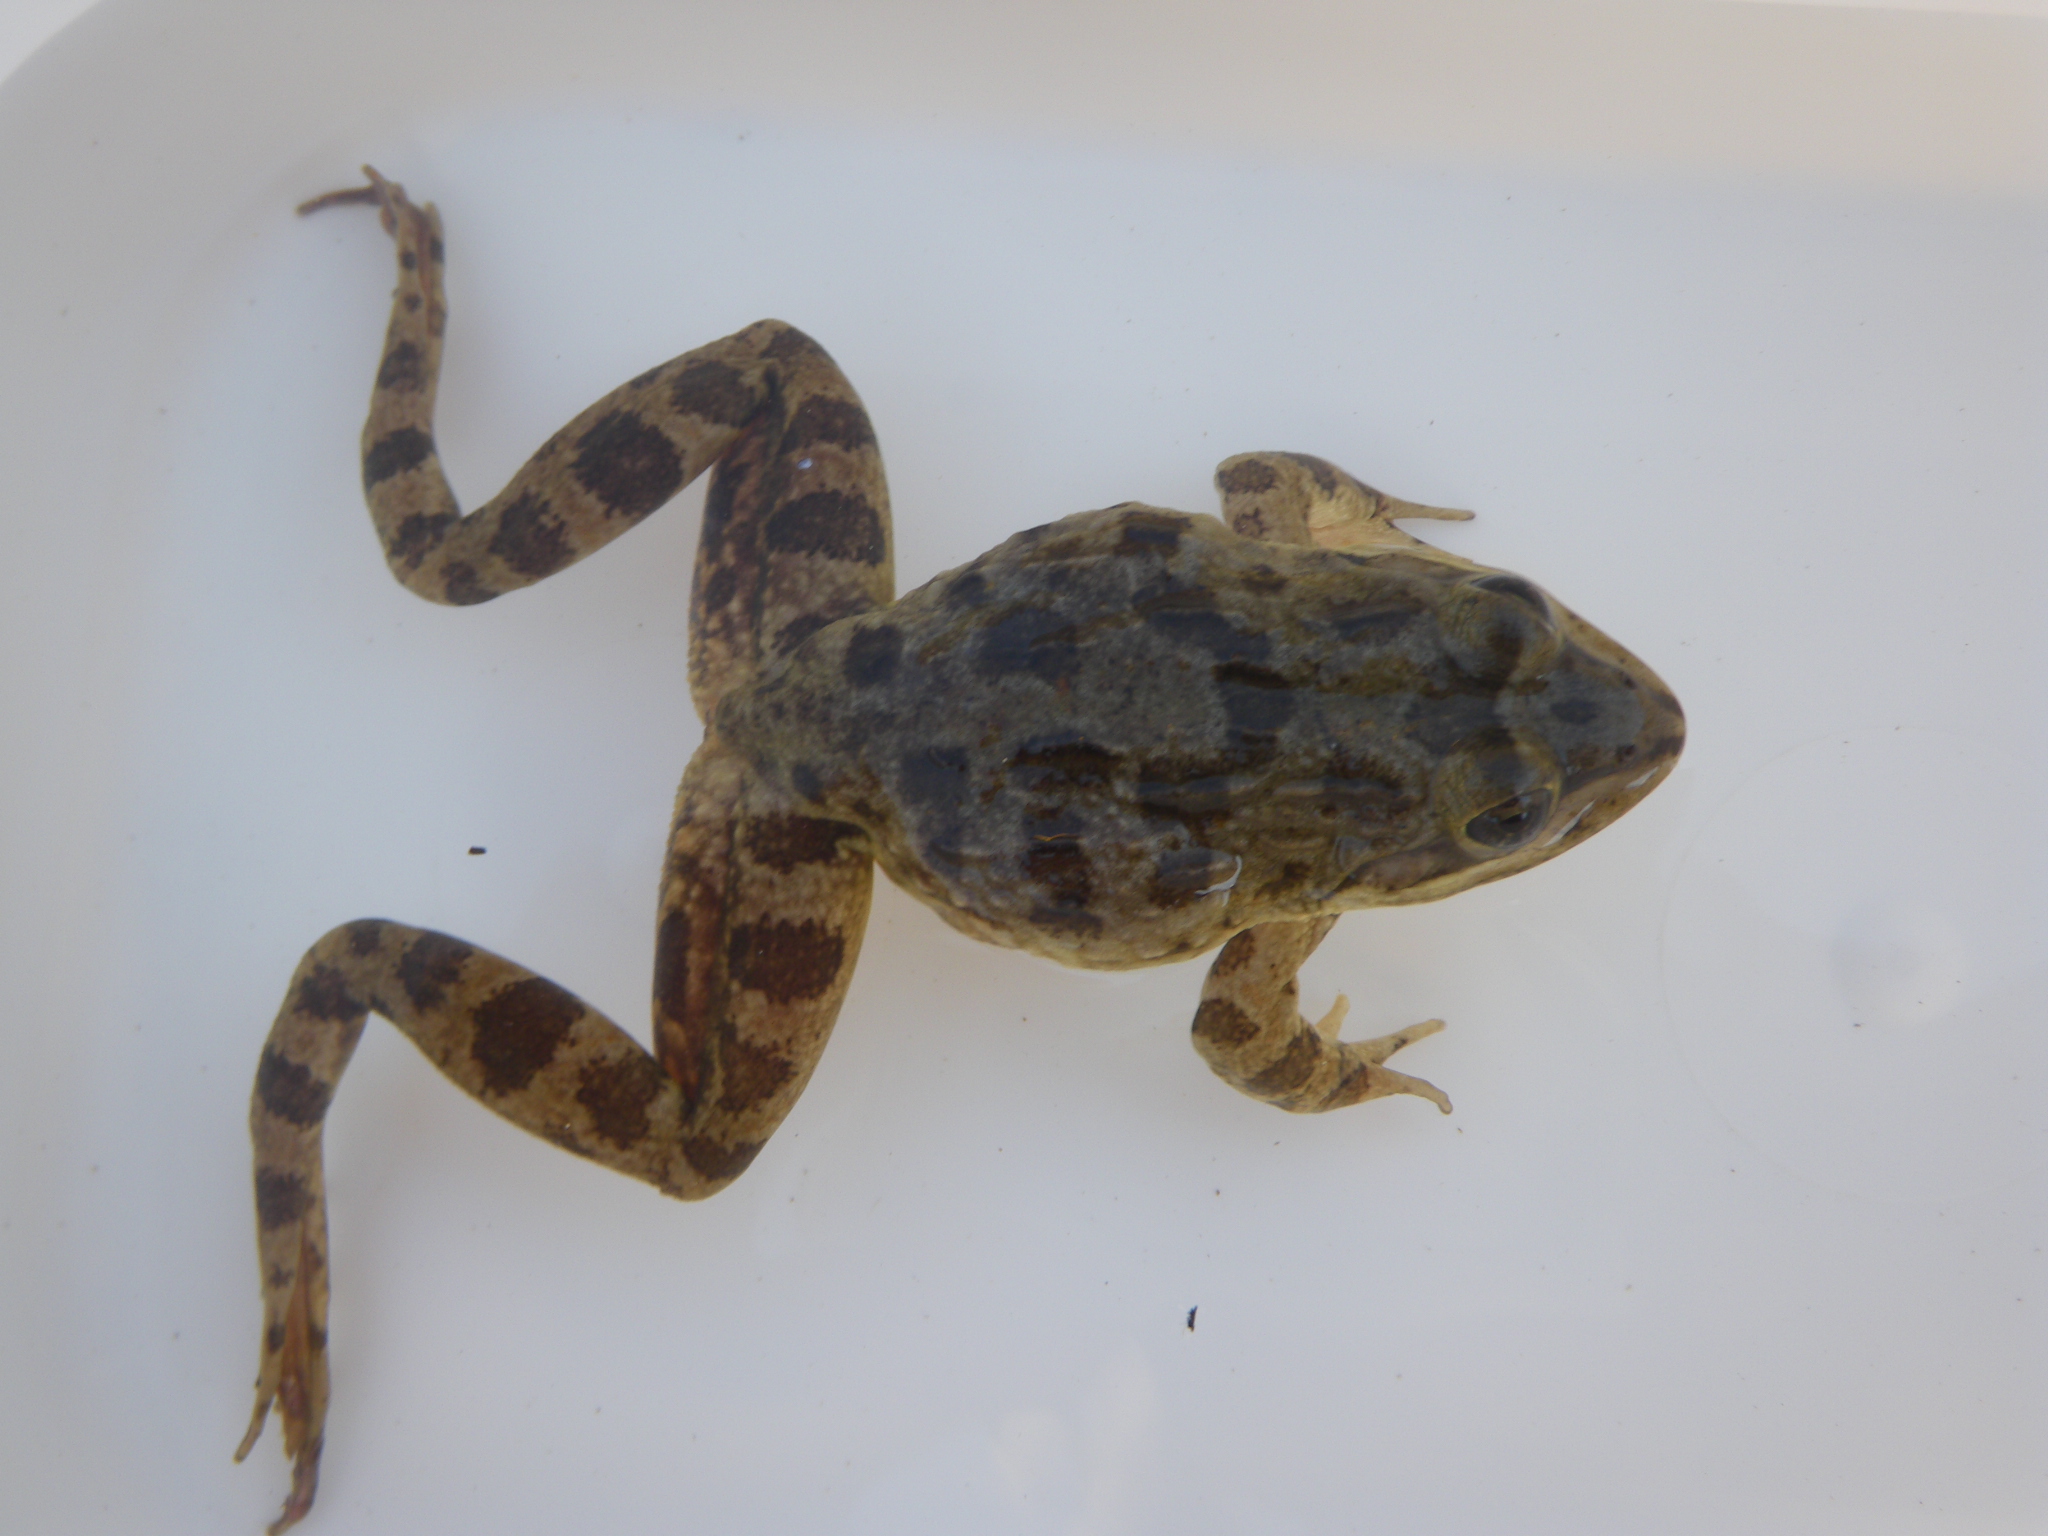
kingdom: Animalia
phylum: Chordata
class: Amphibia
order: Anura
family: Pyxicephalidae
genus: Amietia
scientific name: Amietia
